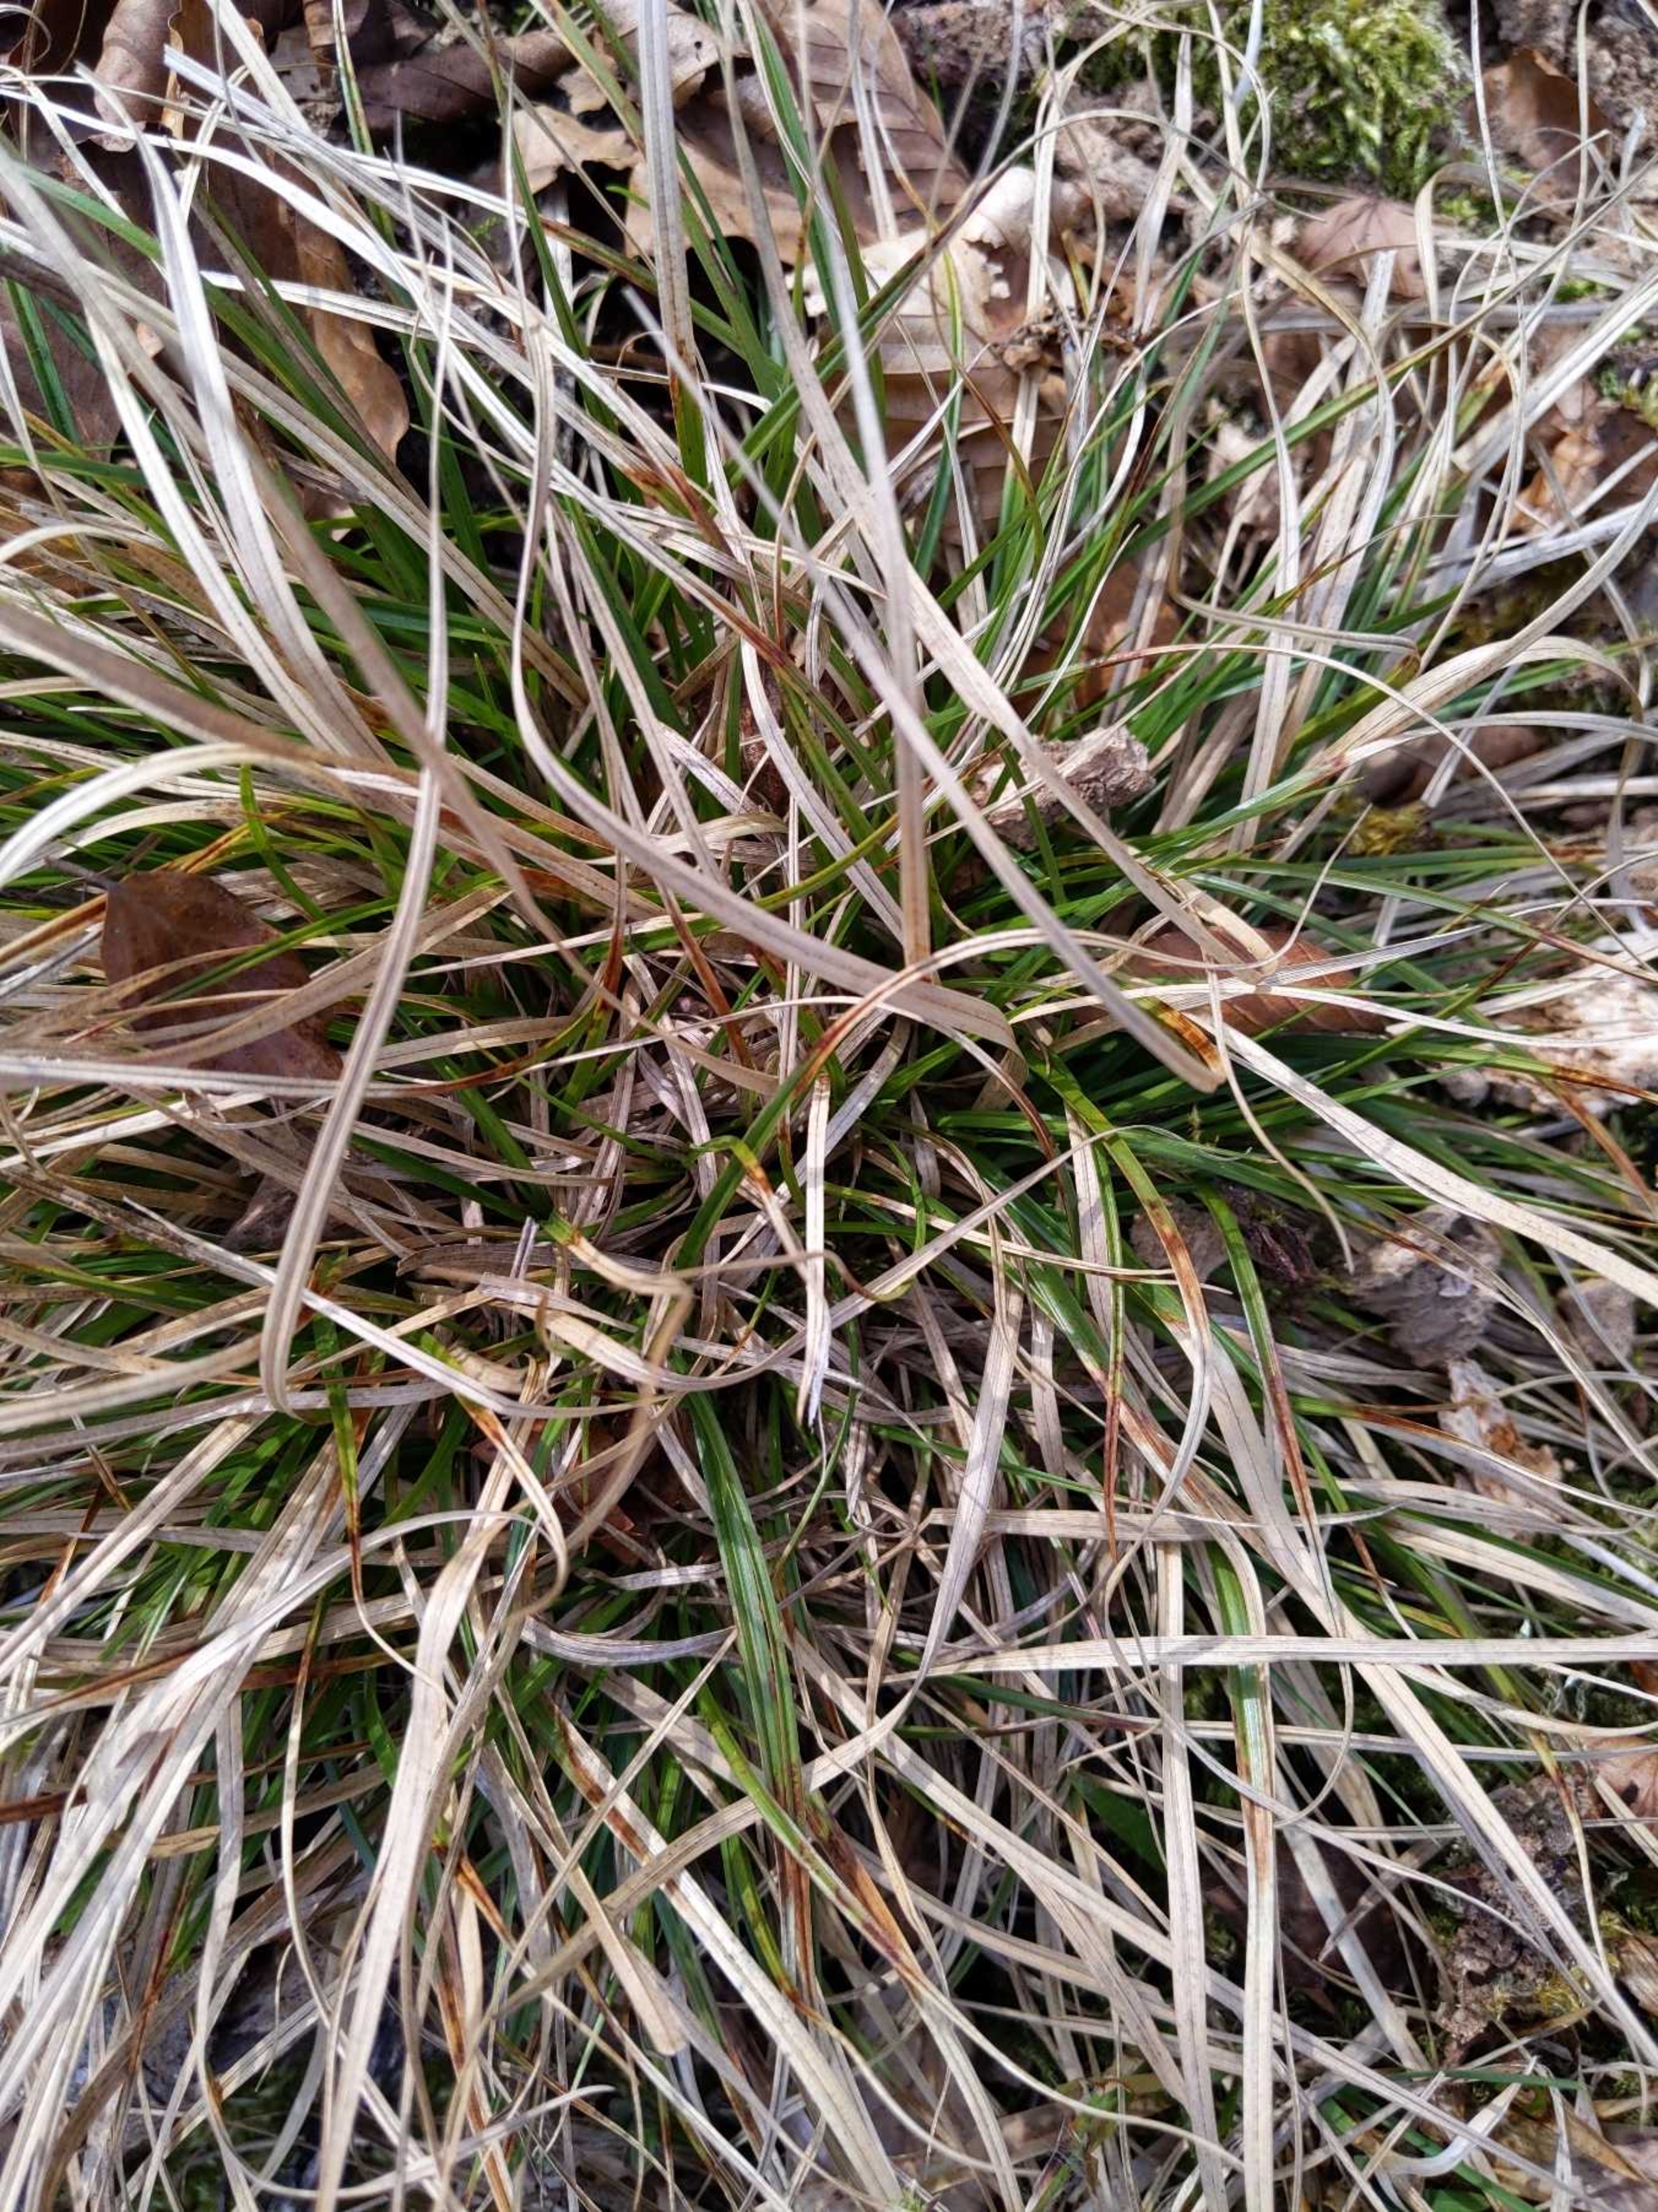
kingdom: Plantae
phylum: Tracheophyta
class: Liliopsida
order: Poales
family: Cyperaceae
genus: Carex
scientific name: Carex pilulifera
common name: Pille-star
